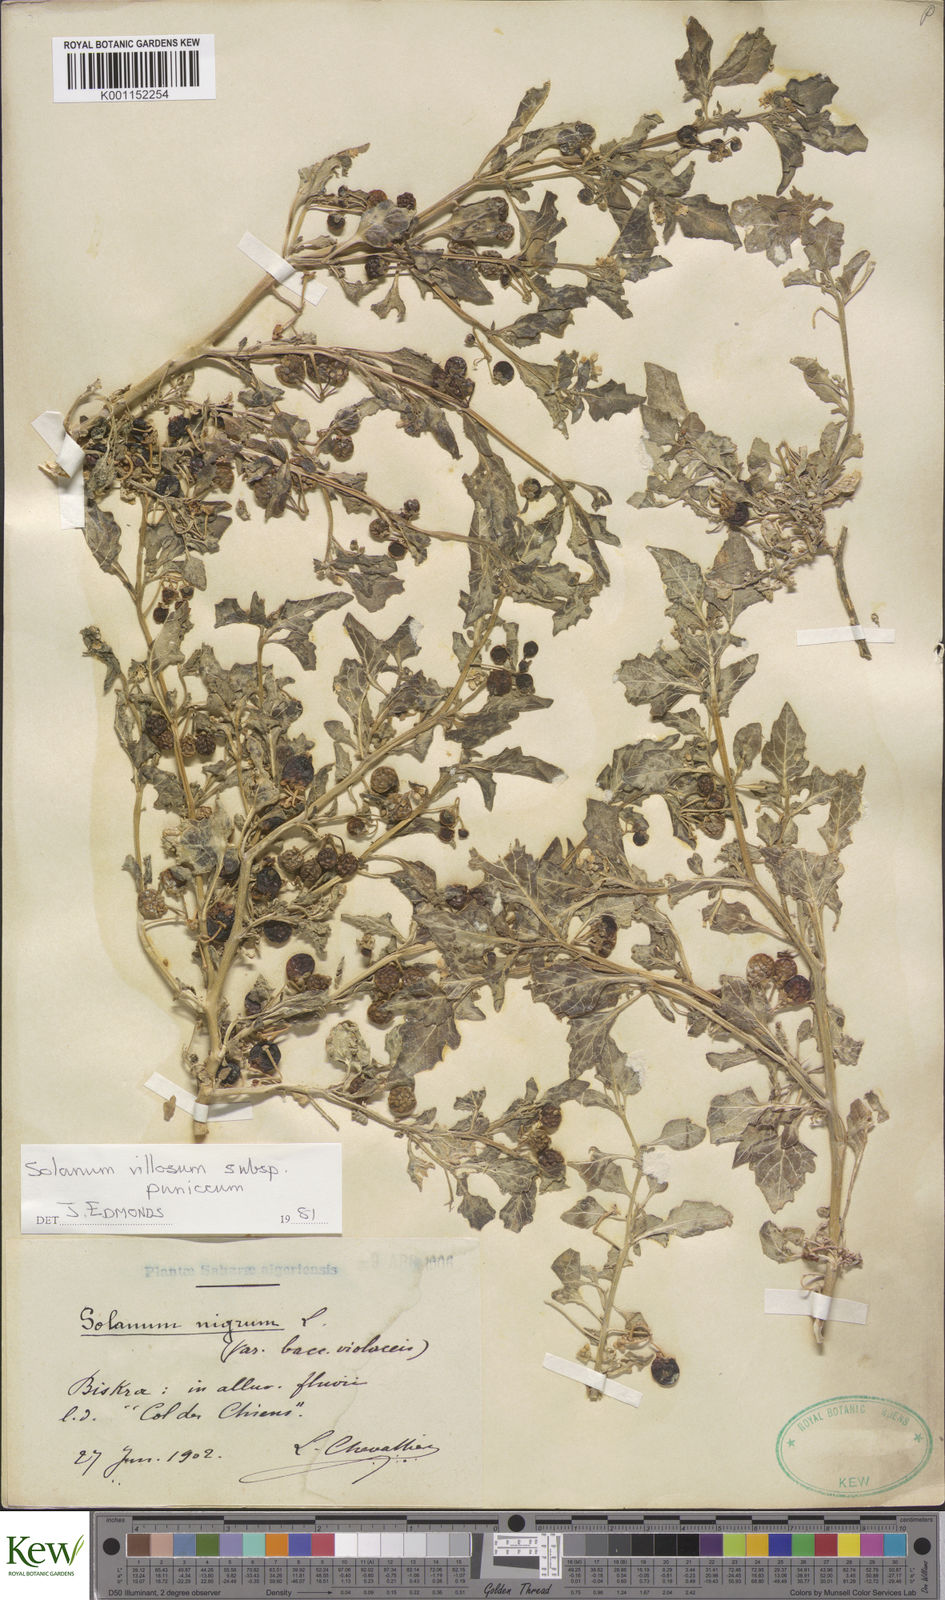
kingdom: Plantae
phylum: Tracheophyta
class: Magnoliopsida
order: Solanales
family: Solanaceae
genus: Solanum
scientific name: Solanum villosum
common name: Red nightshade
